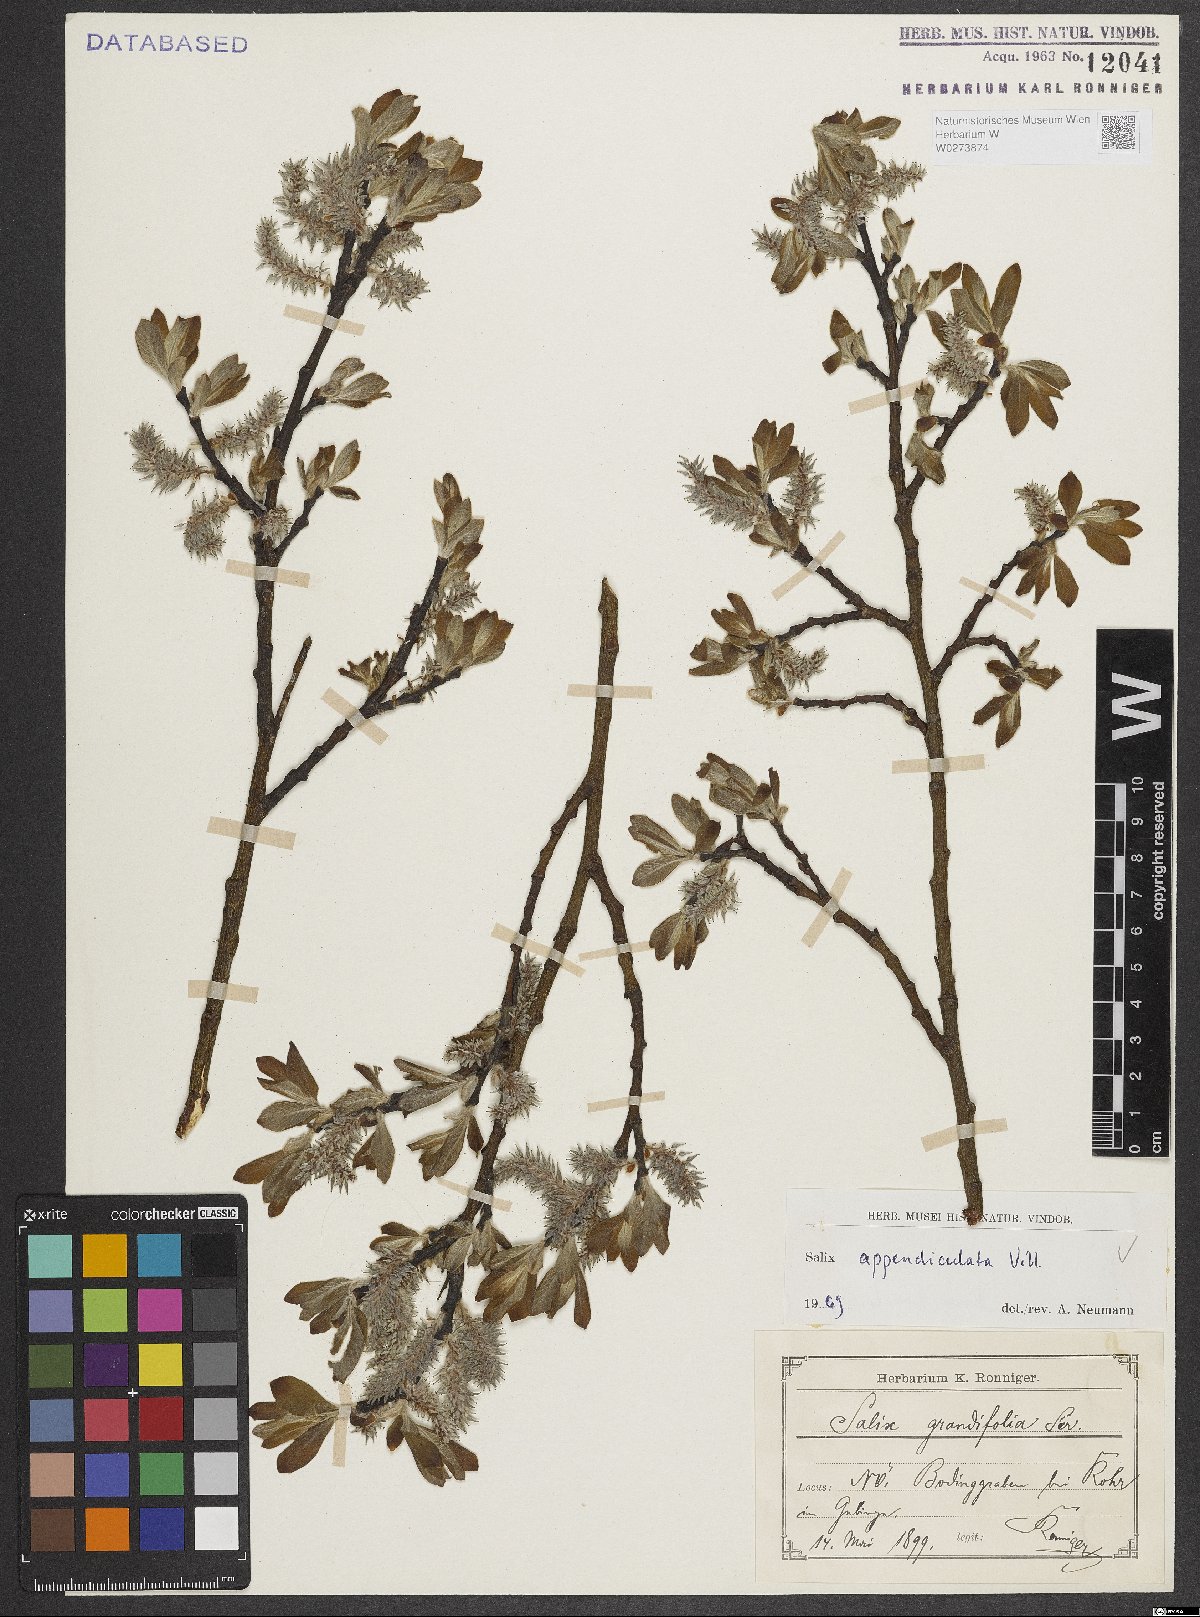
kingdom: Plantae
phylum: Tracheophyta
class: Magnoliopsida
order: Malpighiales
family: Salicaceae
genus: Salix
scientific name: Salix appendiculata
